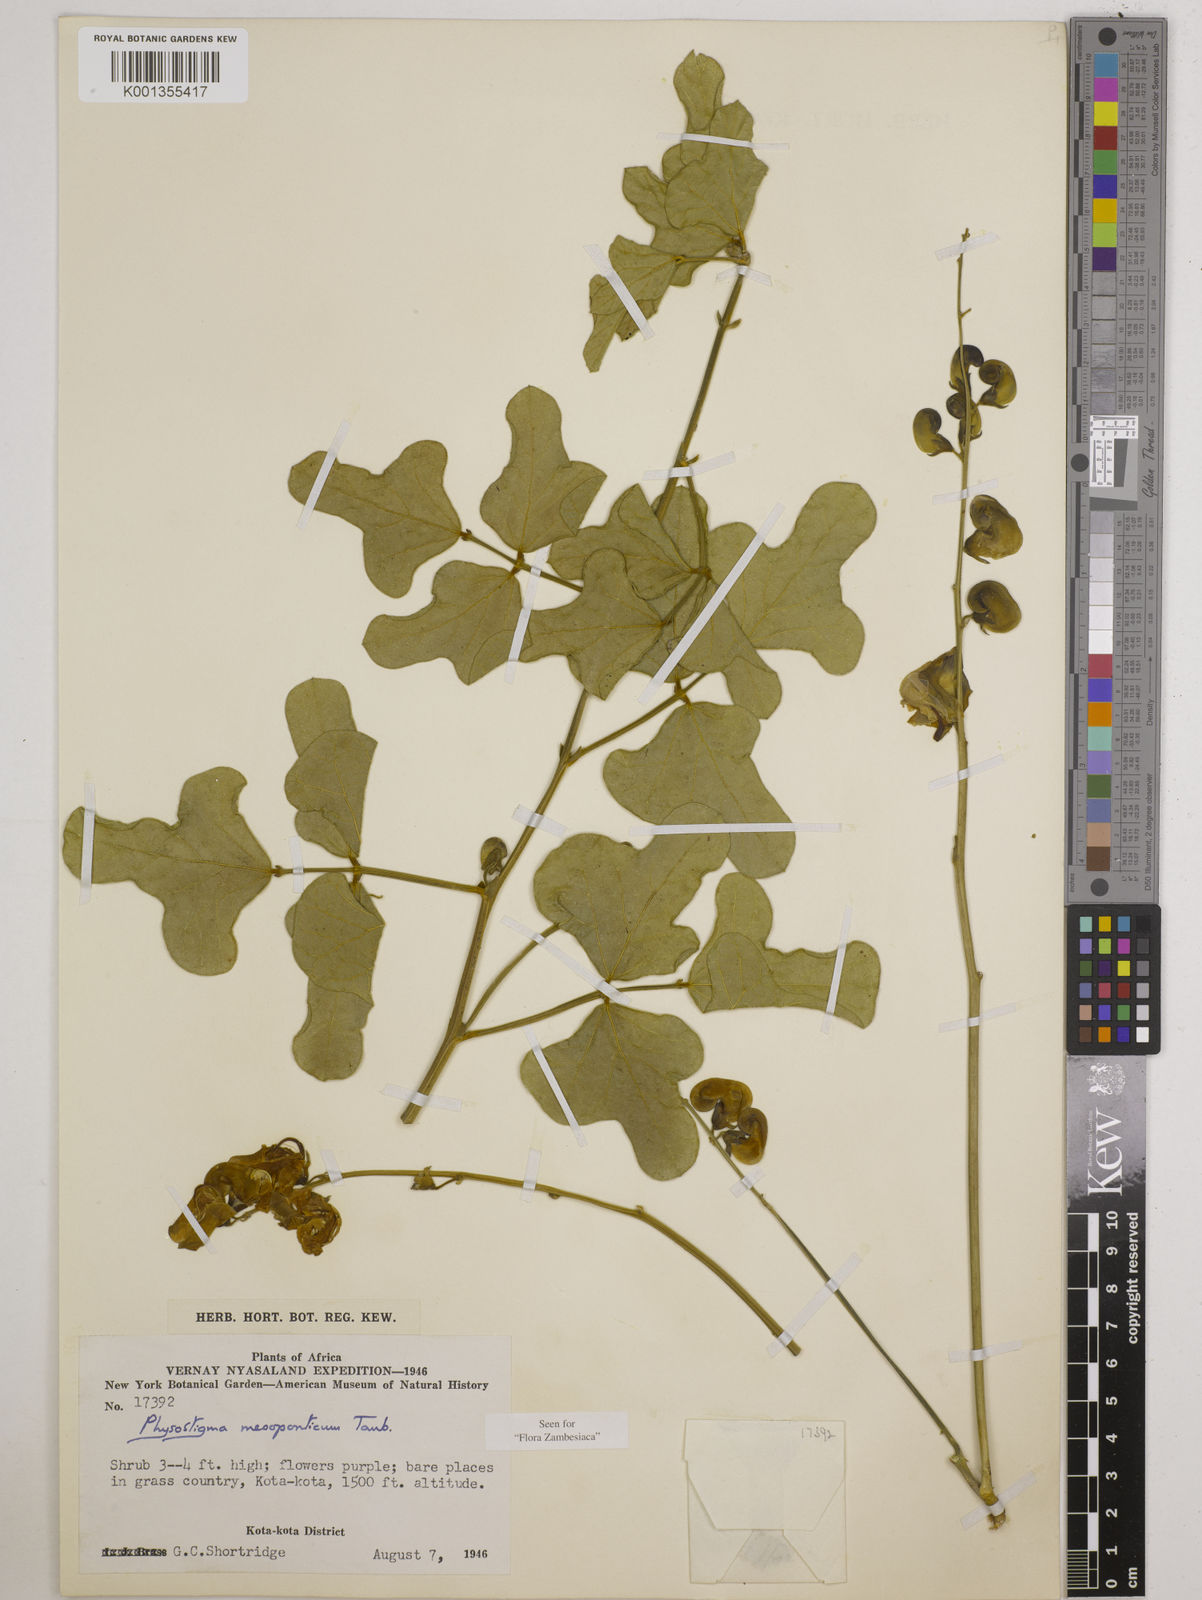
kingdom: Plantae
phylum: Tracheophyta
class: Magnoliopsida
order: Fabales
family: Fabaceae
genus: Physostigma
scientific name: Physostigma mesoponticum
